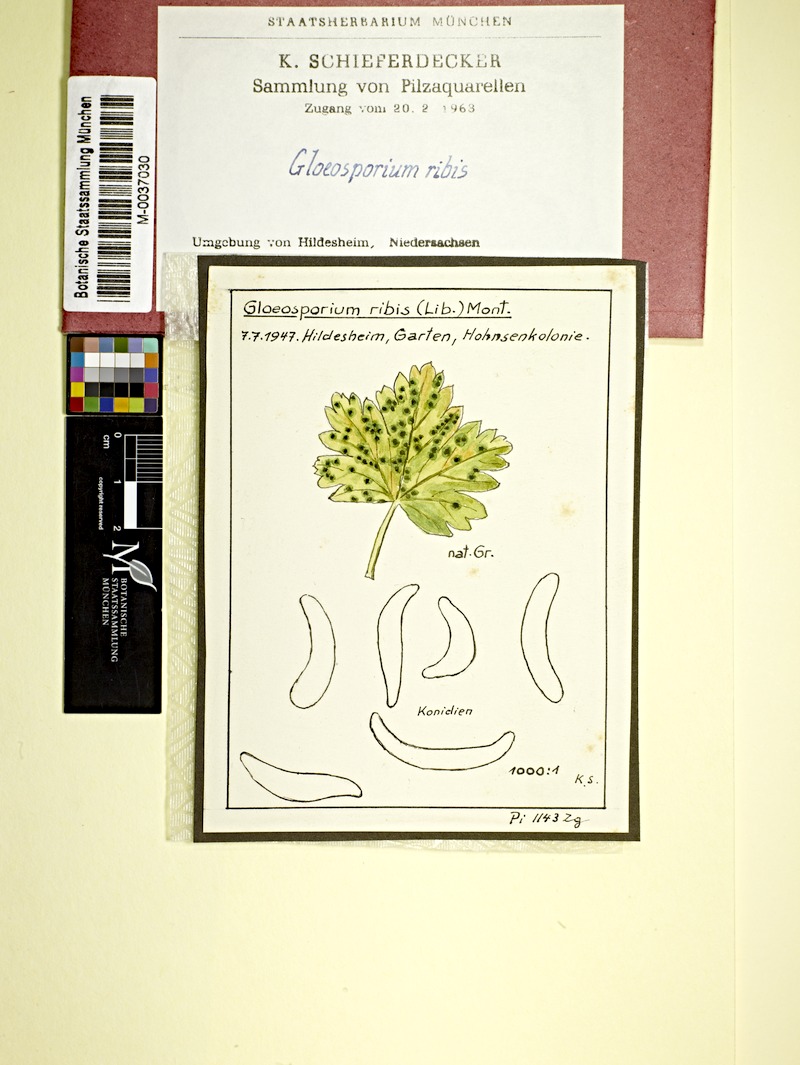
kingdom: Fungi
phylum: Ascomycota
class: Leotiomycetes
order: Helotiales
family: Drepanopezizaceae
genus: Drepanopeziza
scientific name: Drepanopeziza ribis
